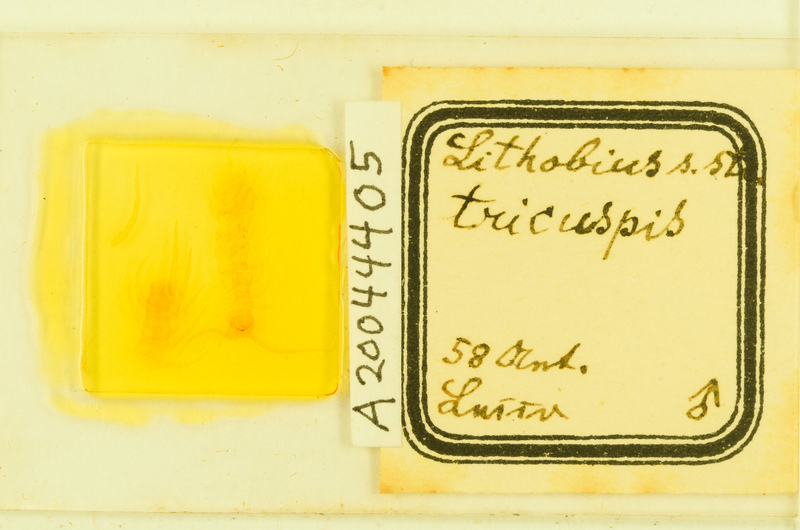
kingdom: Animalia
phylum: Arthropoda
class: Chilopoda
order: Lithobiomorpha
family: Lithobiidae
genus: Lithobius
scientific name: Lithobius tricuspis
